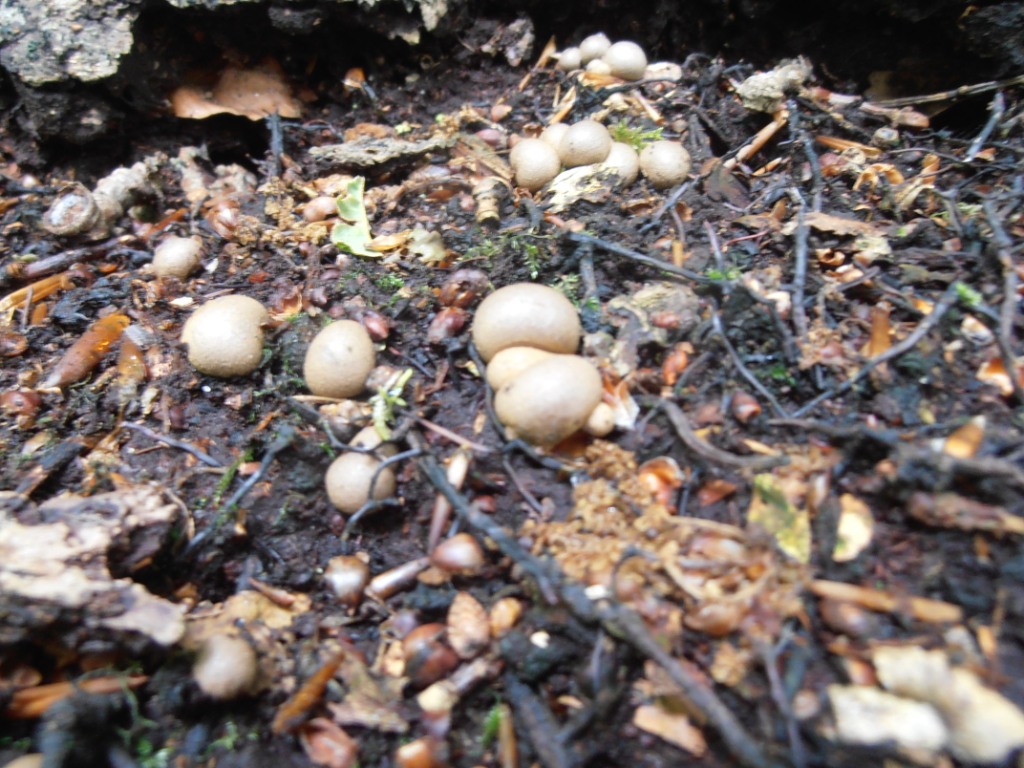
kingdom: Protozoa
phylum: Mycetozoa
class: Myxomycetes
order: Cribrariales
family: Tubiferaceae
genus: Lycogala
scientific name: Lycogala epidendrum
